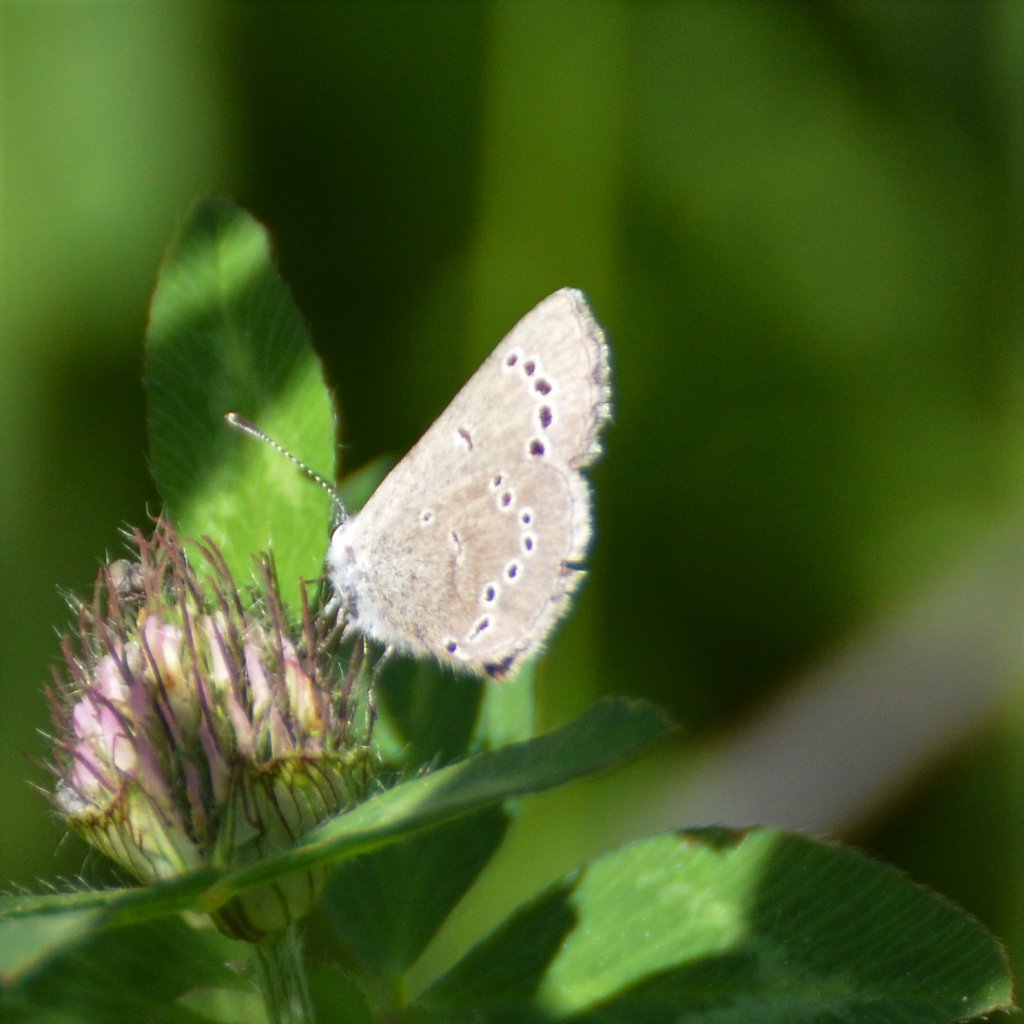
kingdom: Animalia
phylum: Arthropoda
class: Insecta
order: Lepidoptera
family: Lycaenidae
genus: Glaucopsyche
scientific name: Glaucopsyche lygdamus
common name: Silvery Blue
